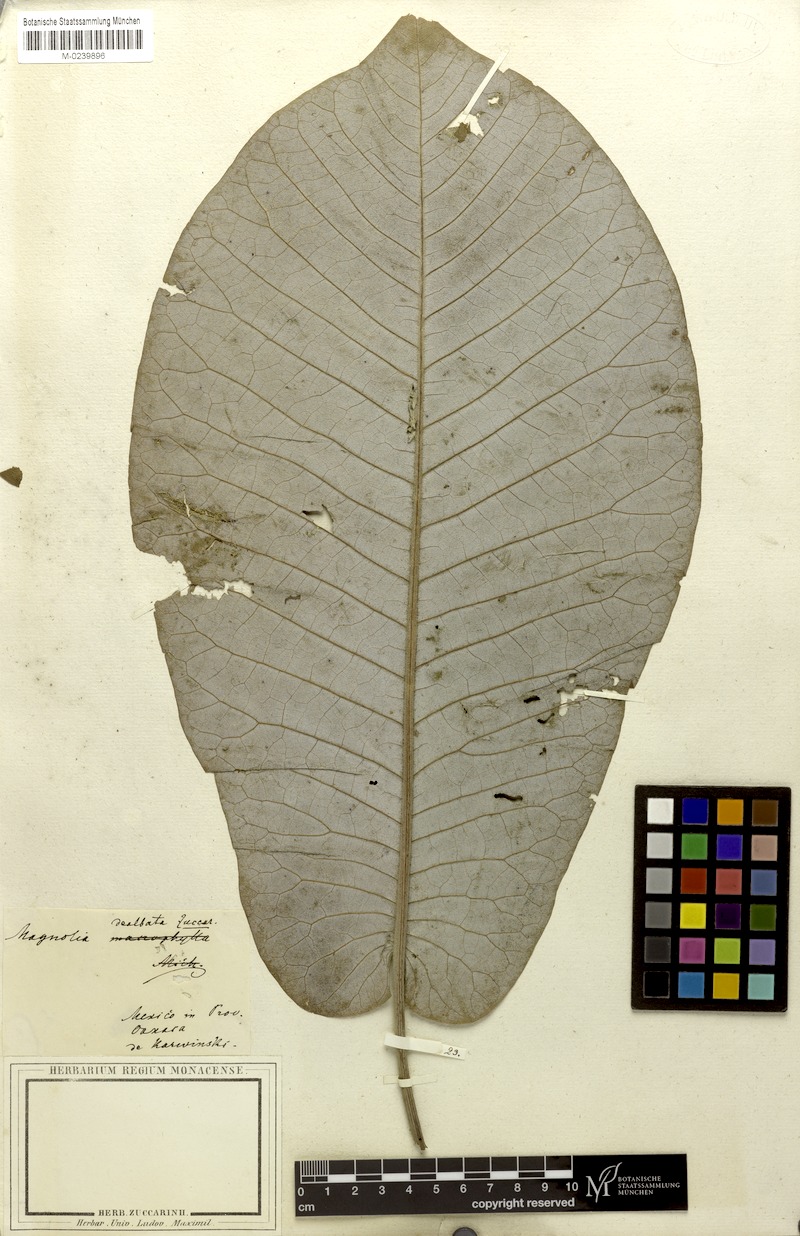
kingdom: Plantae
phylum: Tracheophyta
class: Magnoliopsida
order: Magnoliales
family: Magnoliaceae
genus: Magnolia
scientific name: Magnolia dealbata
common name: Cloudforest magnolia
